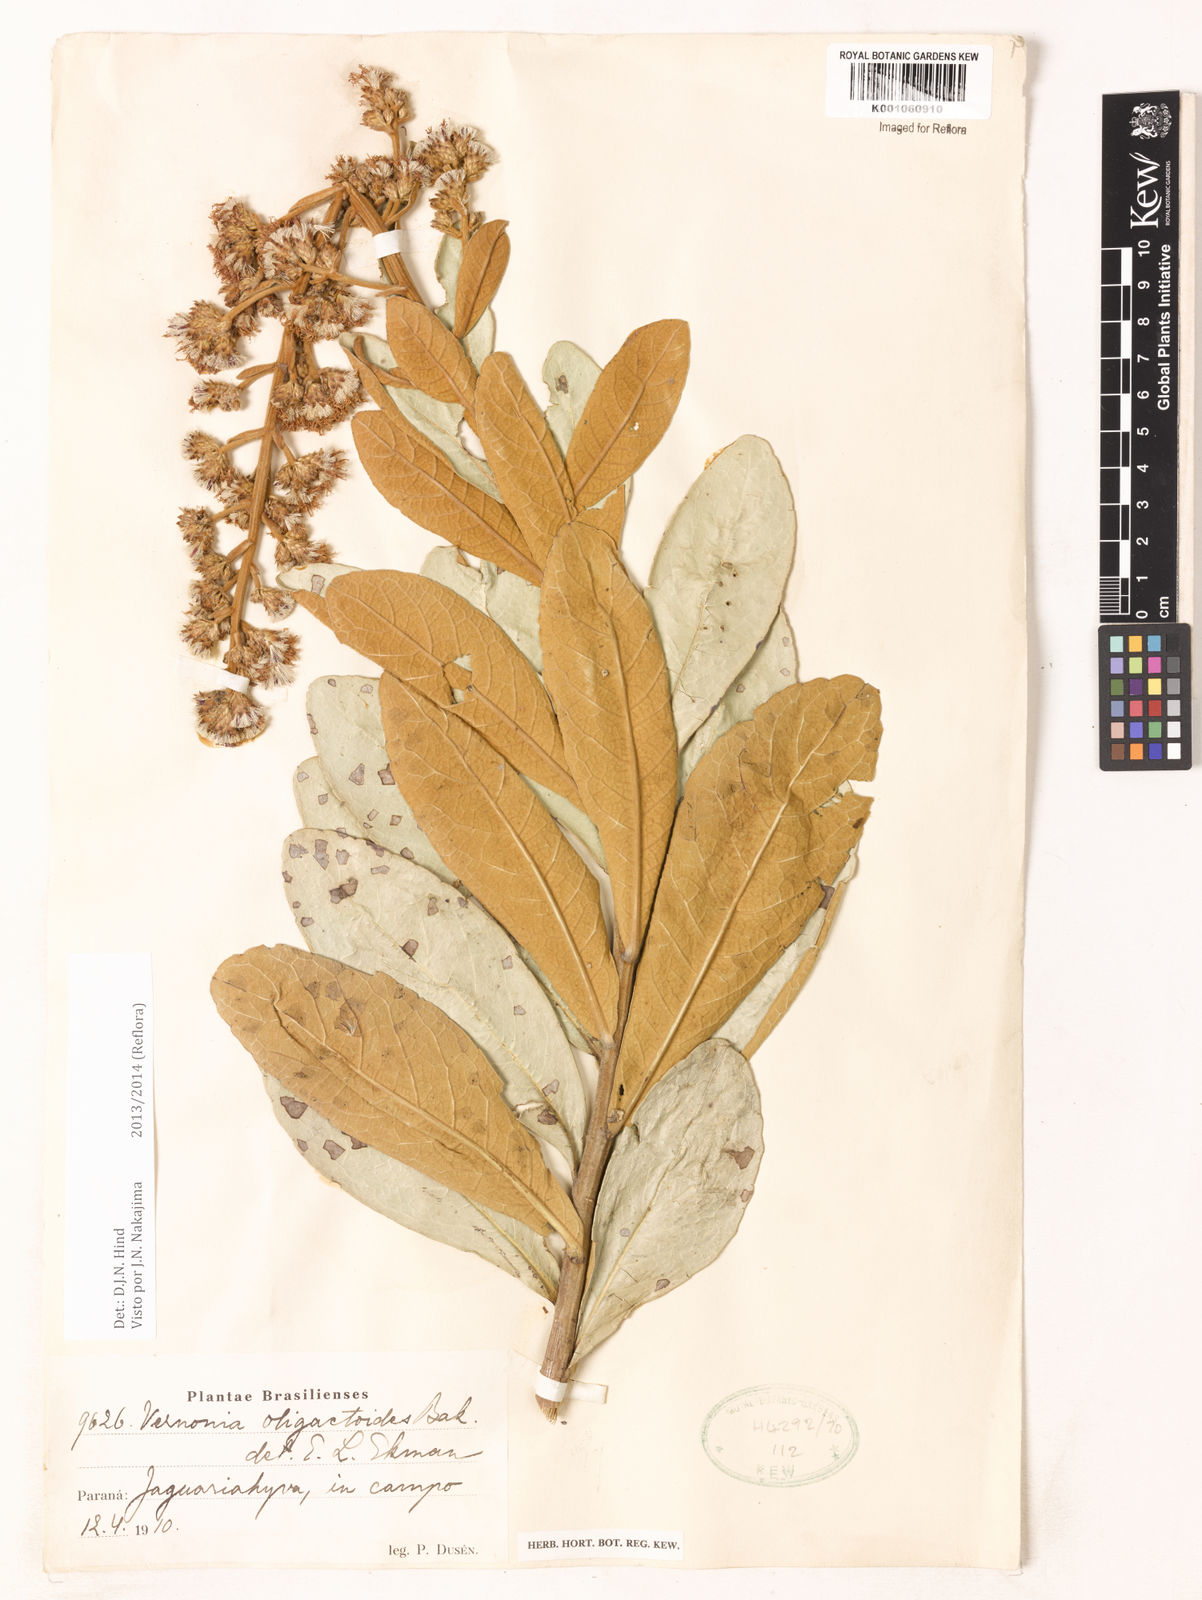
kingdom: Plantae
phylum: Tracheophyta
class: Magnoliopsida
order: Asterales
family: Asteraceae
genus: Vernonanthura
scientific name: Vernonanthura oligactoides
